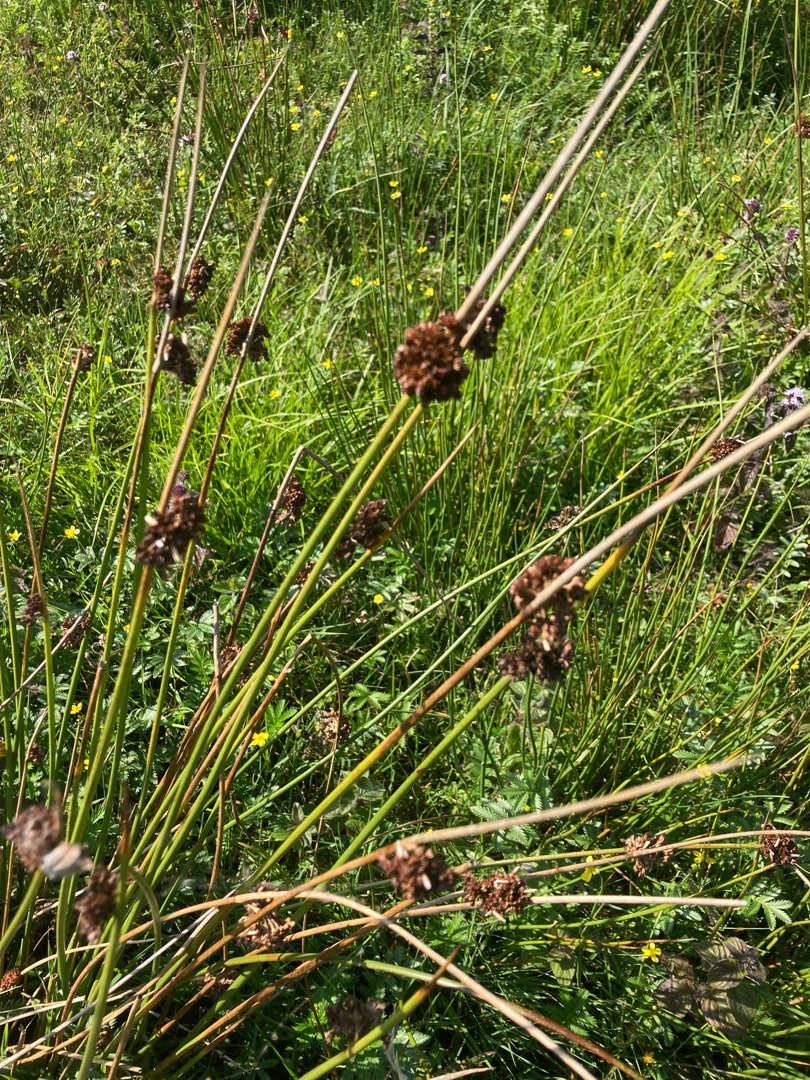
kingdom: Plantae
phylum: Tracheophyta
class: Liliopsida
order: Poales
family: Juncaceae
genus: Juncus
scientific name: Juncus
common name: Sivslægten
